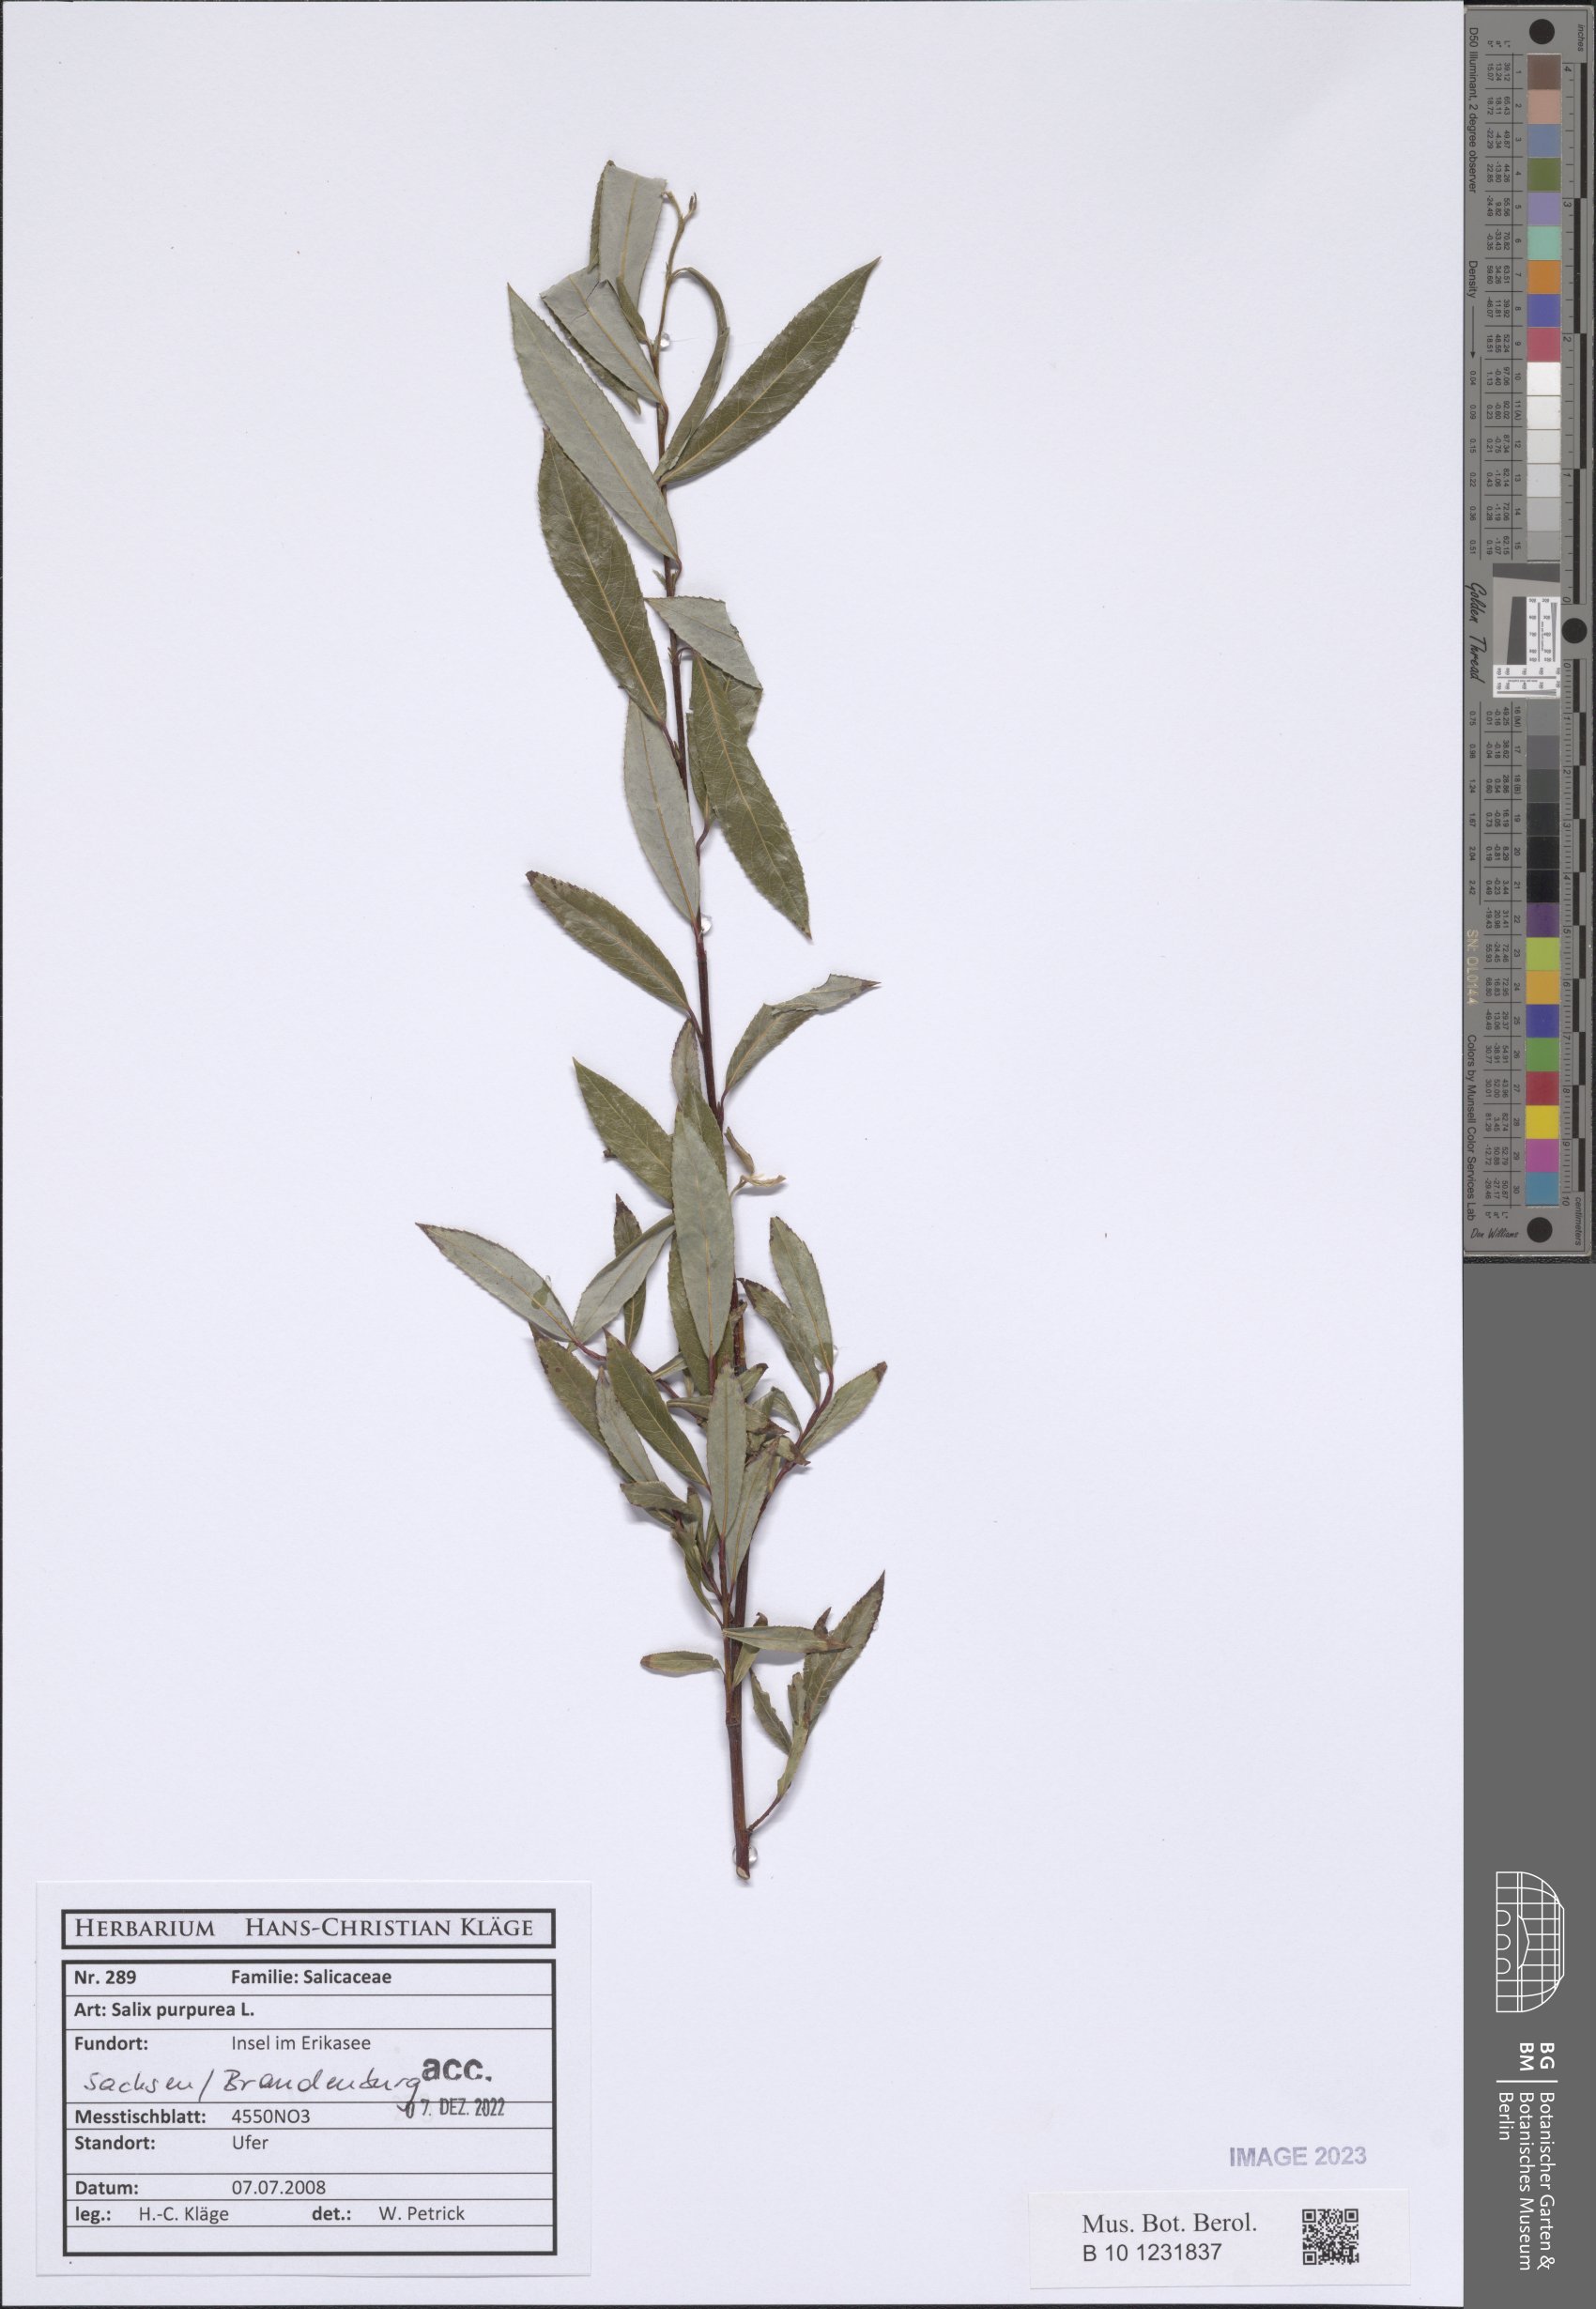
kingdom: Plantae
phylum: Tracheophyta
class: Magnoliopsida
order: Malpighiales
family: Salicaceae
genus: Salix
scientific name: Salix purpurea
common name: Purple willow
